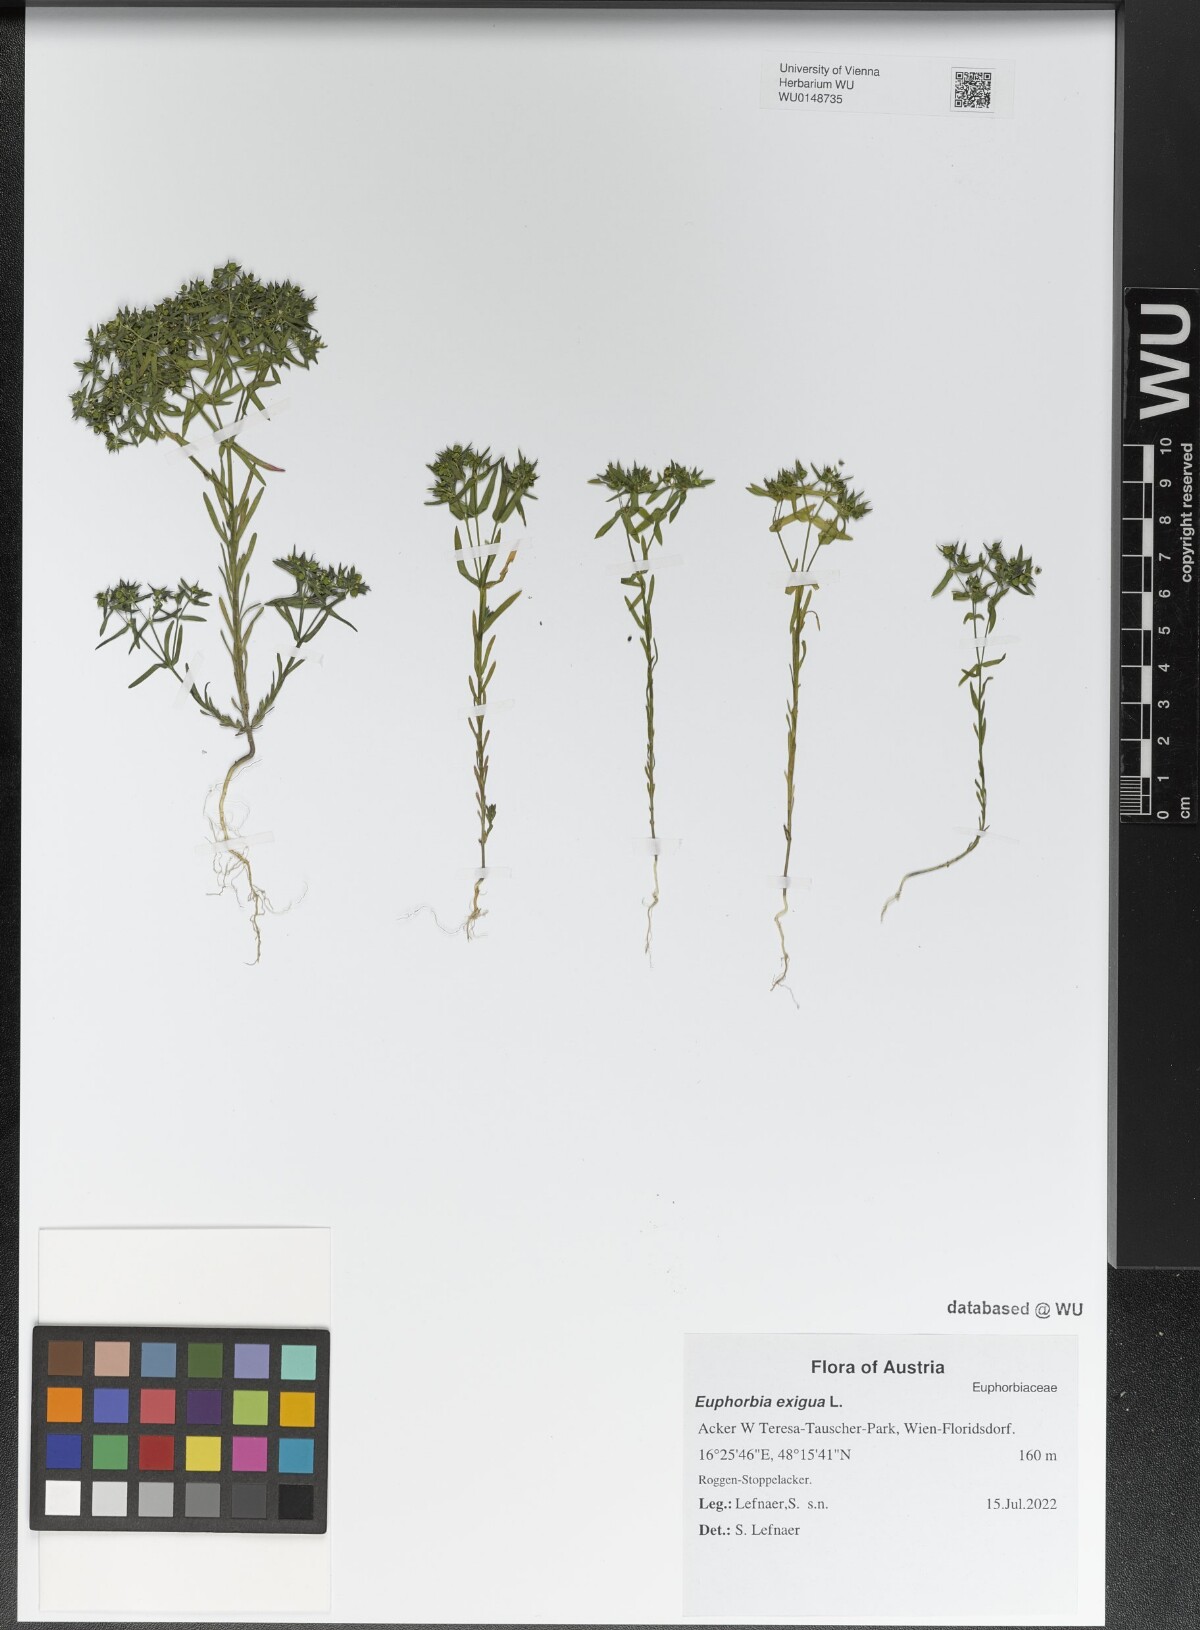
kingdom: Plantae
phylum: Tracheophyta
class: Magnoliopsida
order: Malpighiales
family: Euphorbiaceae
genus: Euphorbia
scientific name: Euphorbia exigua
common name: Dwarf spurge
